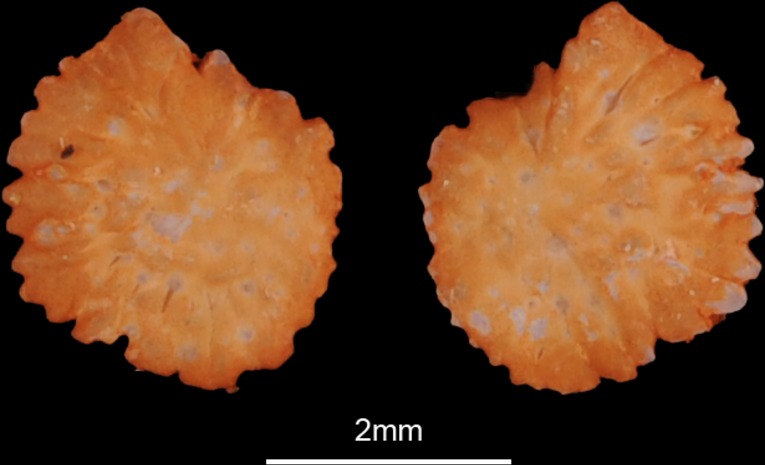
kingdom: Animalia
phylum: Chordata
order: Cypriniformes
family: Cyprinidae
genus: Vimba
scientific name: Vimba vimba
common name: Vimba
